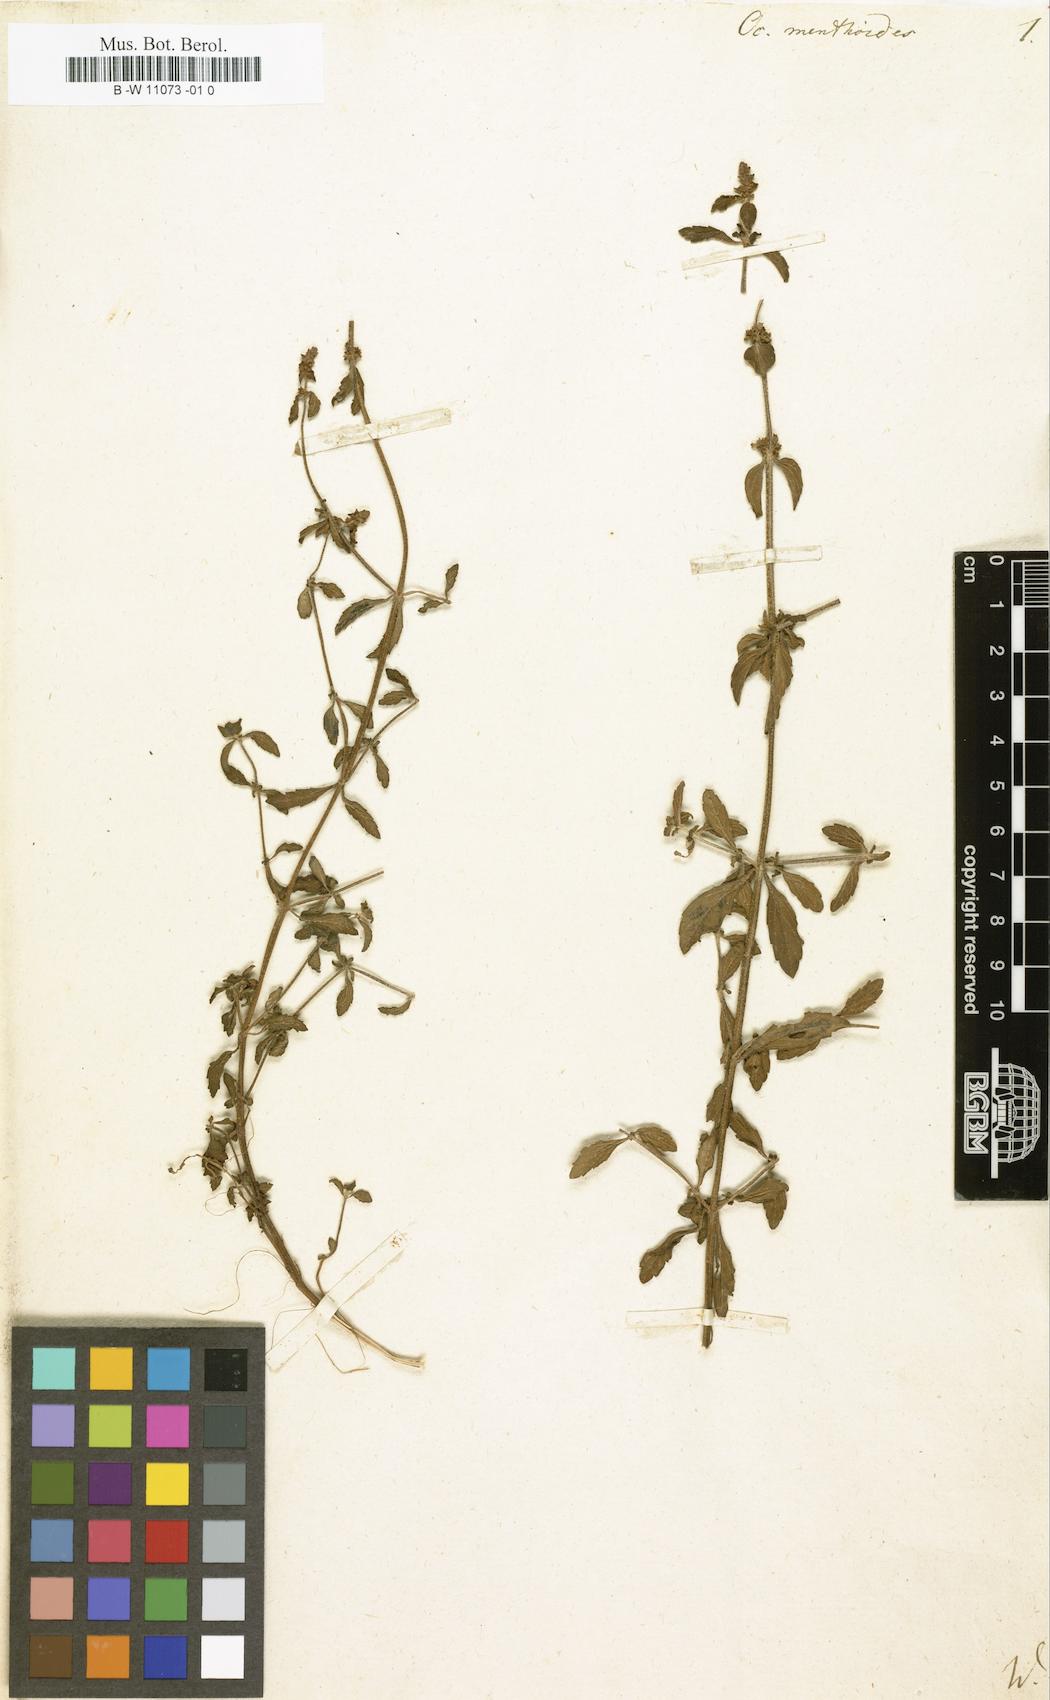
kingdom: Plantae
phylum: Tracheophyta
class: Magnoliopsida
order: Lamiales
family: Lamiaceae
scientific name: Lamiaceae
